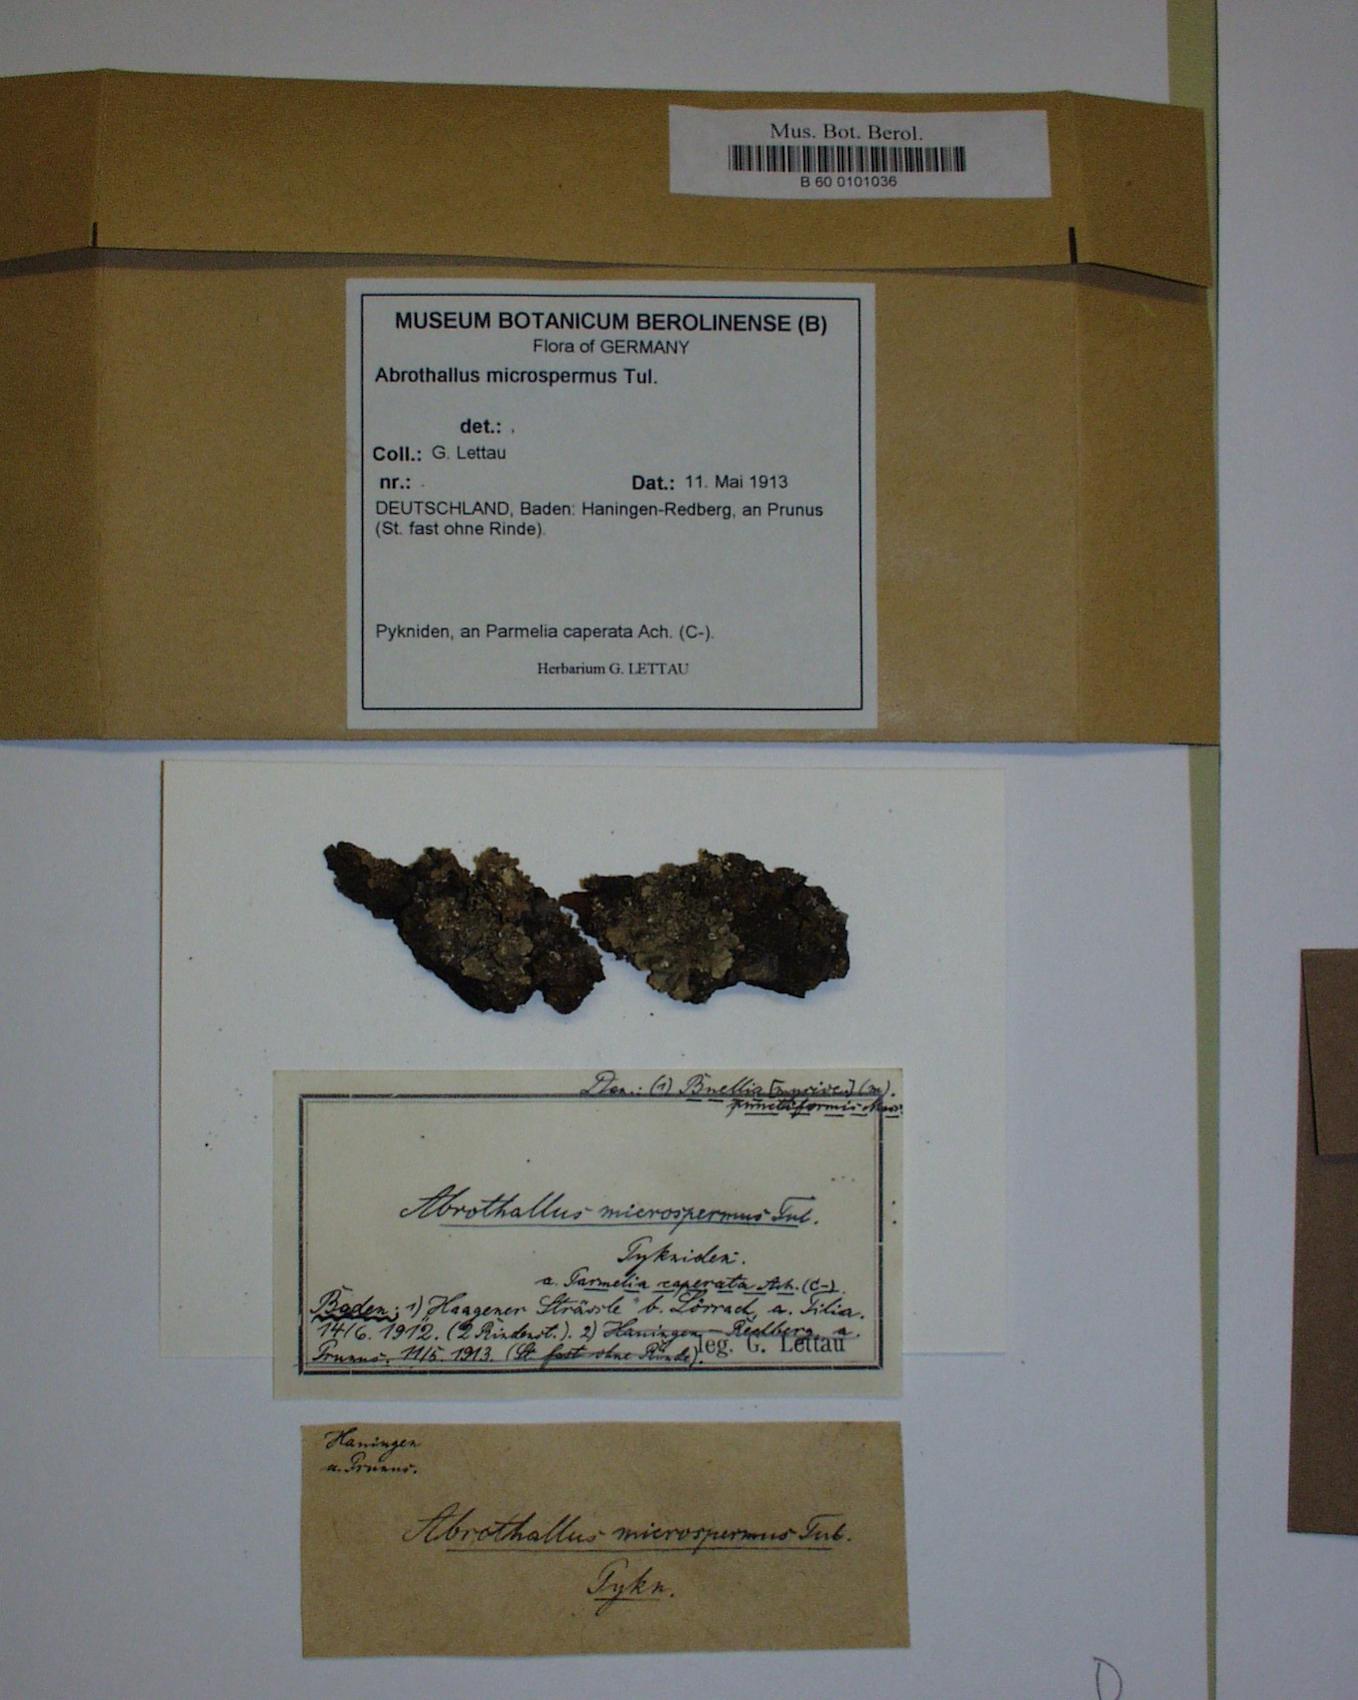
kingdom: Fungi
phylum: Ascomycota
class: Dothideomycetes
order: Abrothallales
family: Abrothallaceae
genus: Abrothallus
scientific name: Abrothallus microspermus
